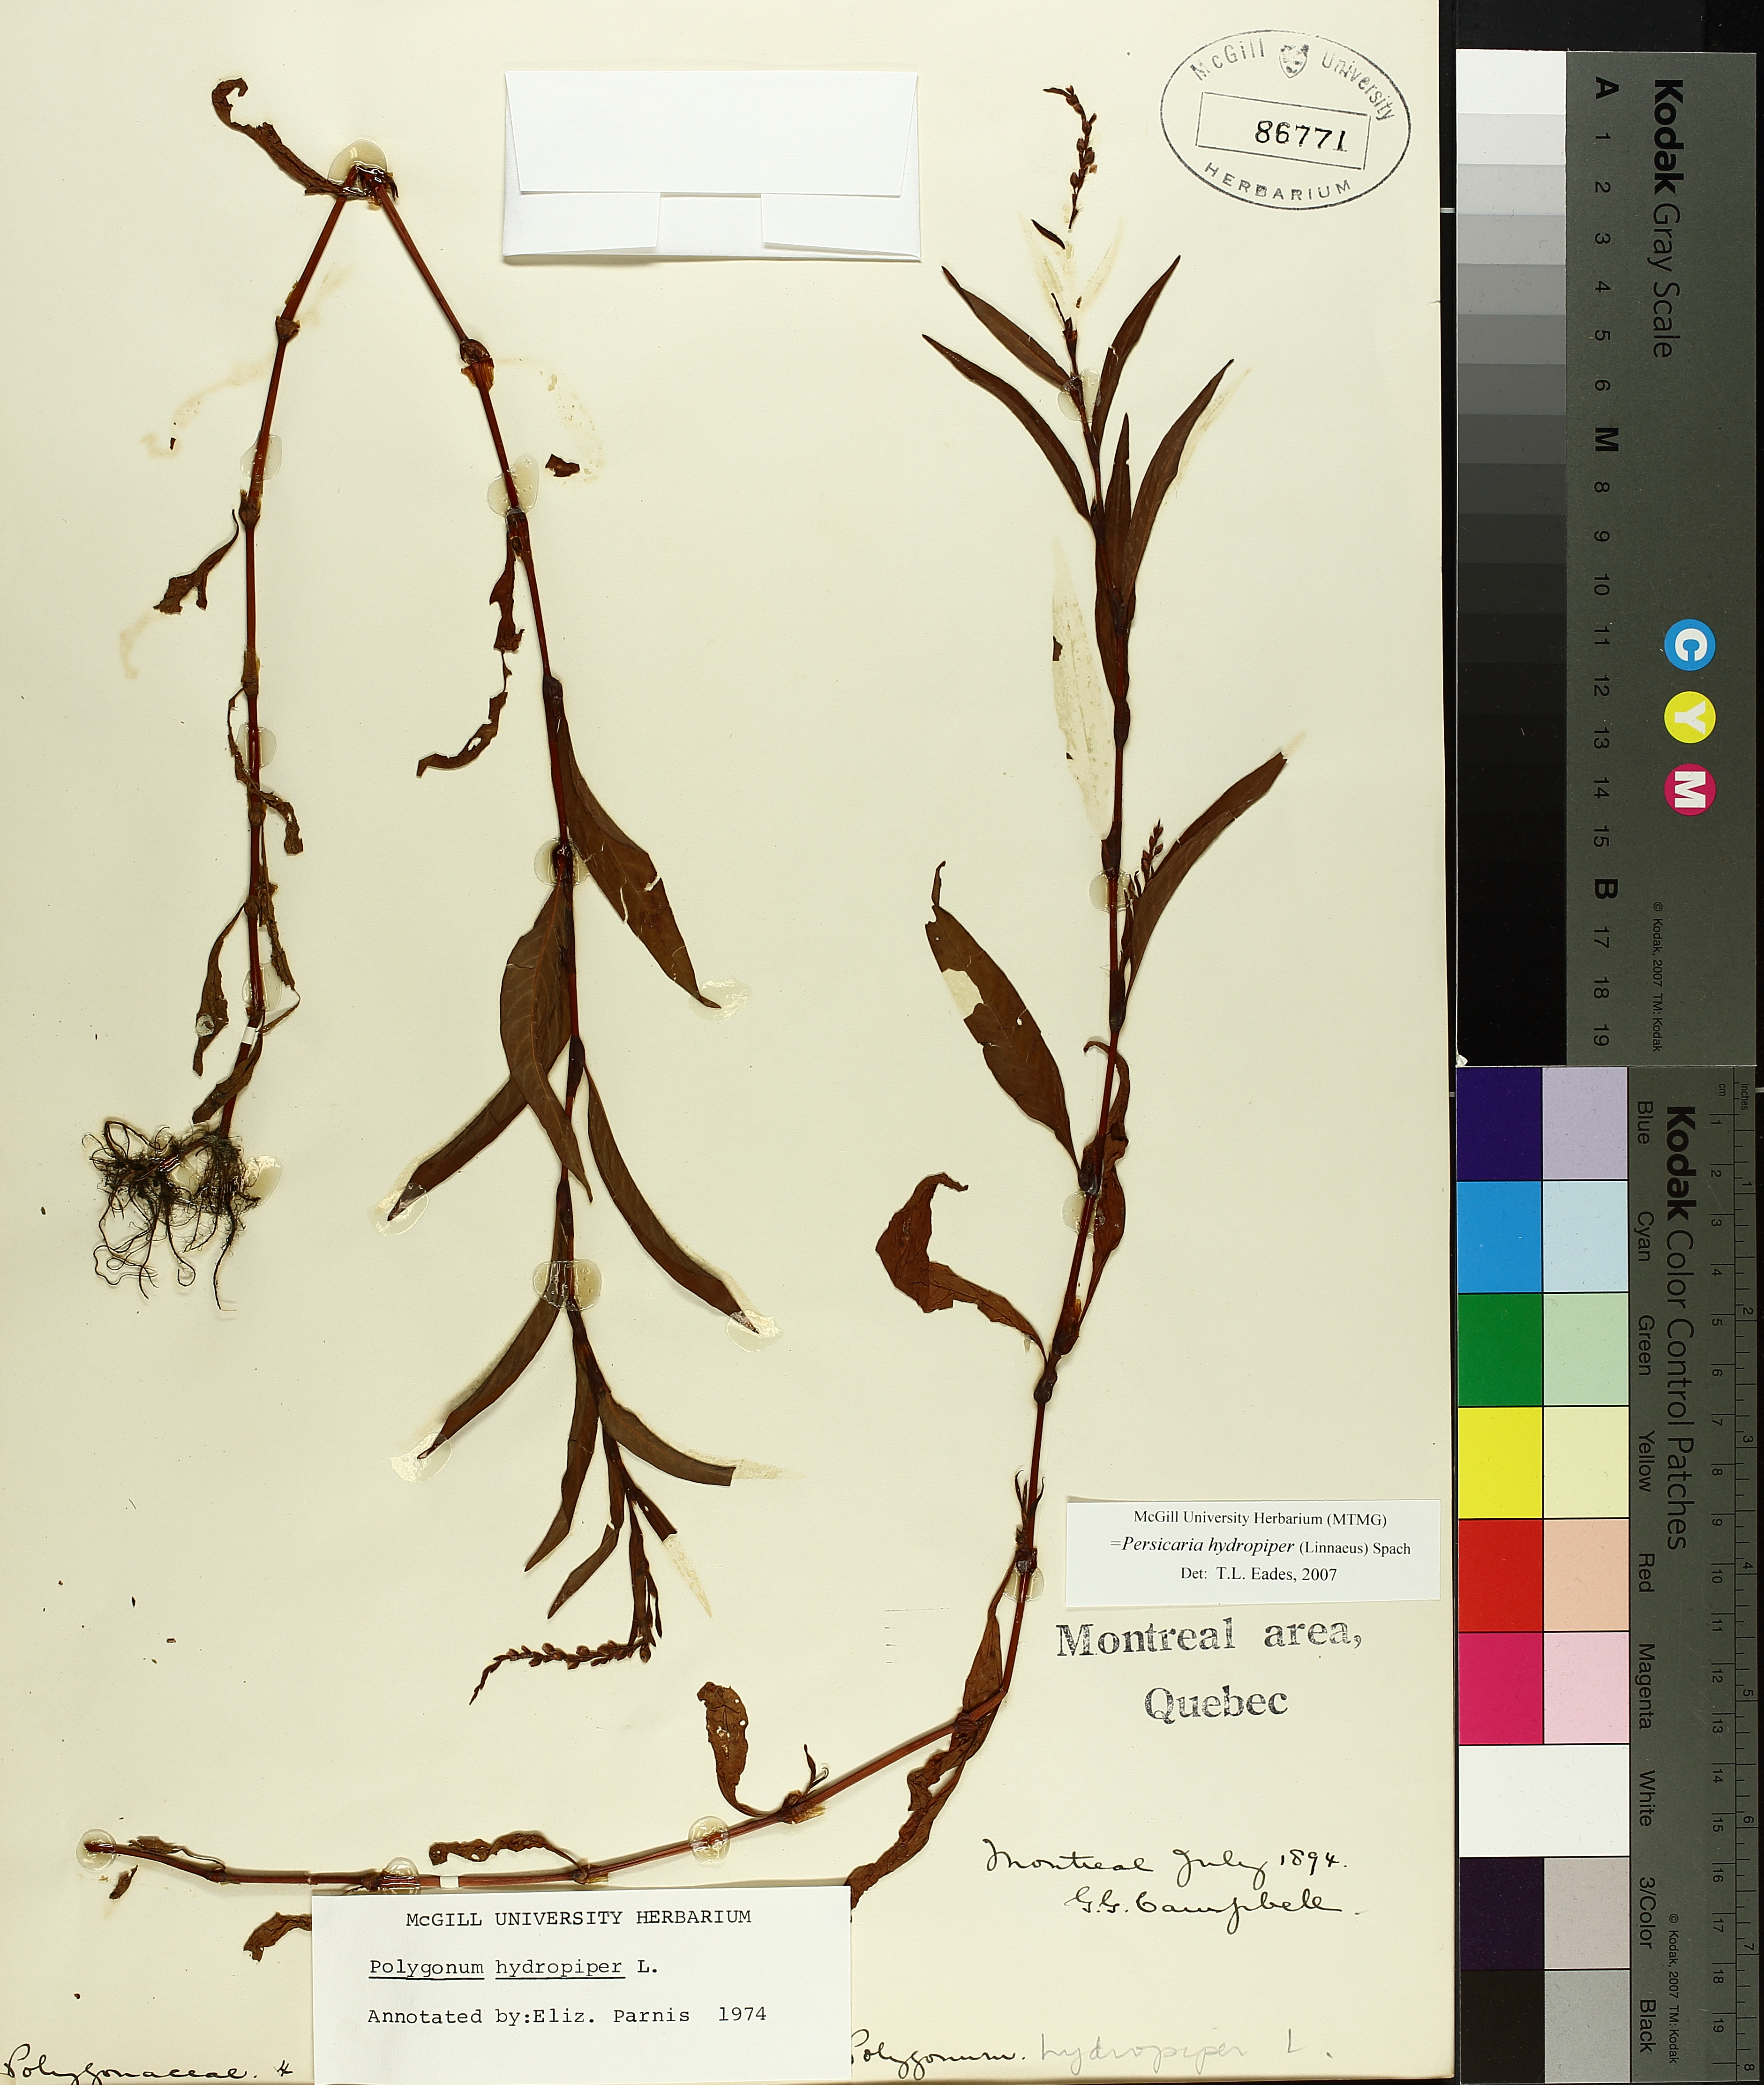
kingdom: Plantae
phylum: Tracheophyta
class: Magnoliopsida
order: Caryophyllales
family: Polygonaceae
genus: Persicaria
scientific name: Persicaria hydropiper
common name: Water-pepper
